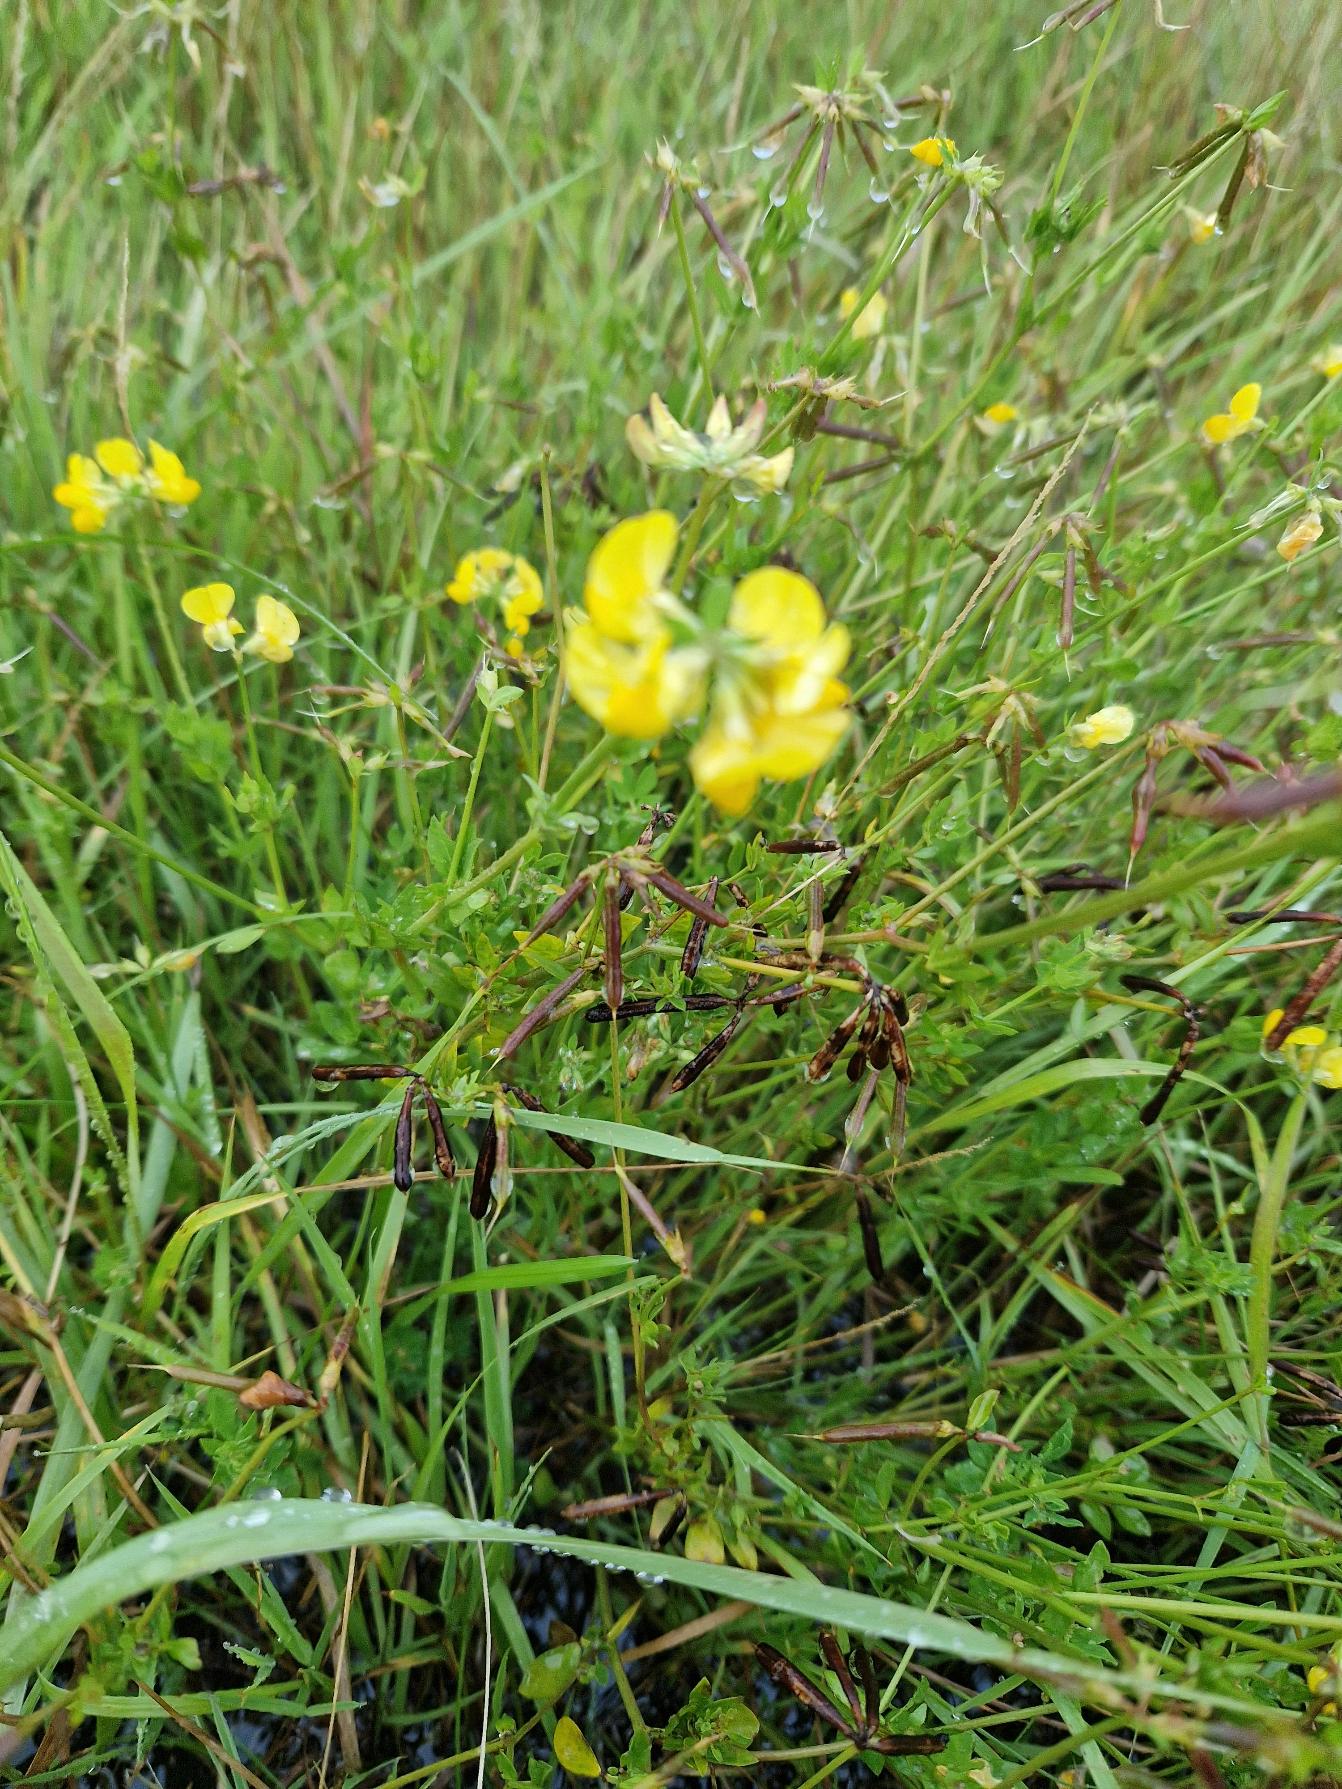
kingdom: Plantae
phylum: Tracheophyta
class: Magnoliopsida
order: Fabales
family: Fabaceae
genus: Lotus
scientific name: Lotus corniculatus
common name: Almindelig kællingetand
